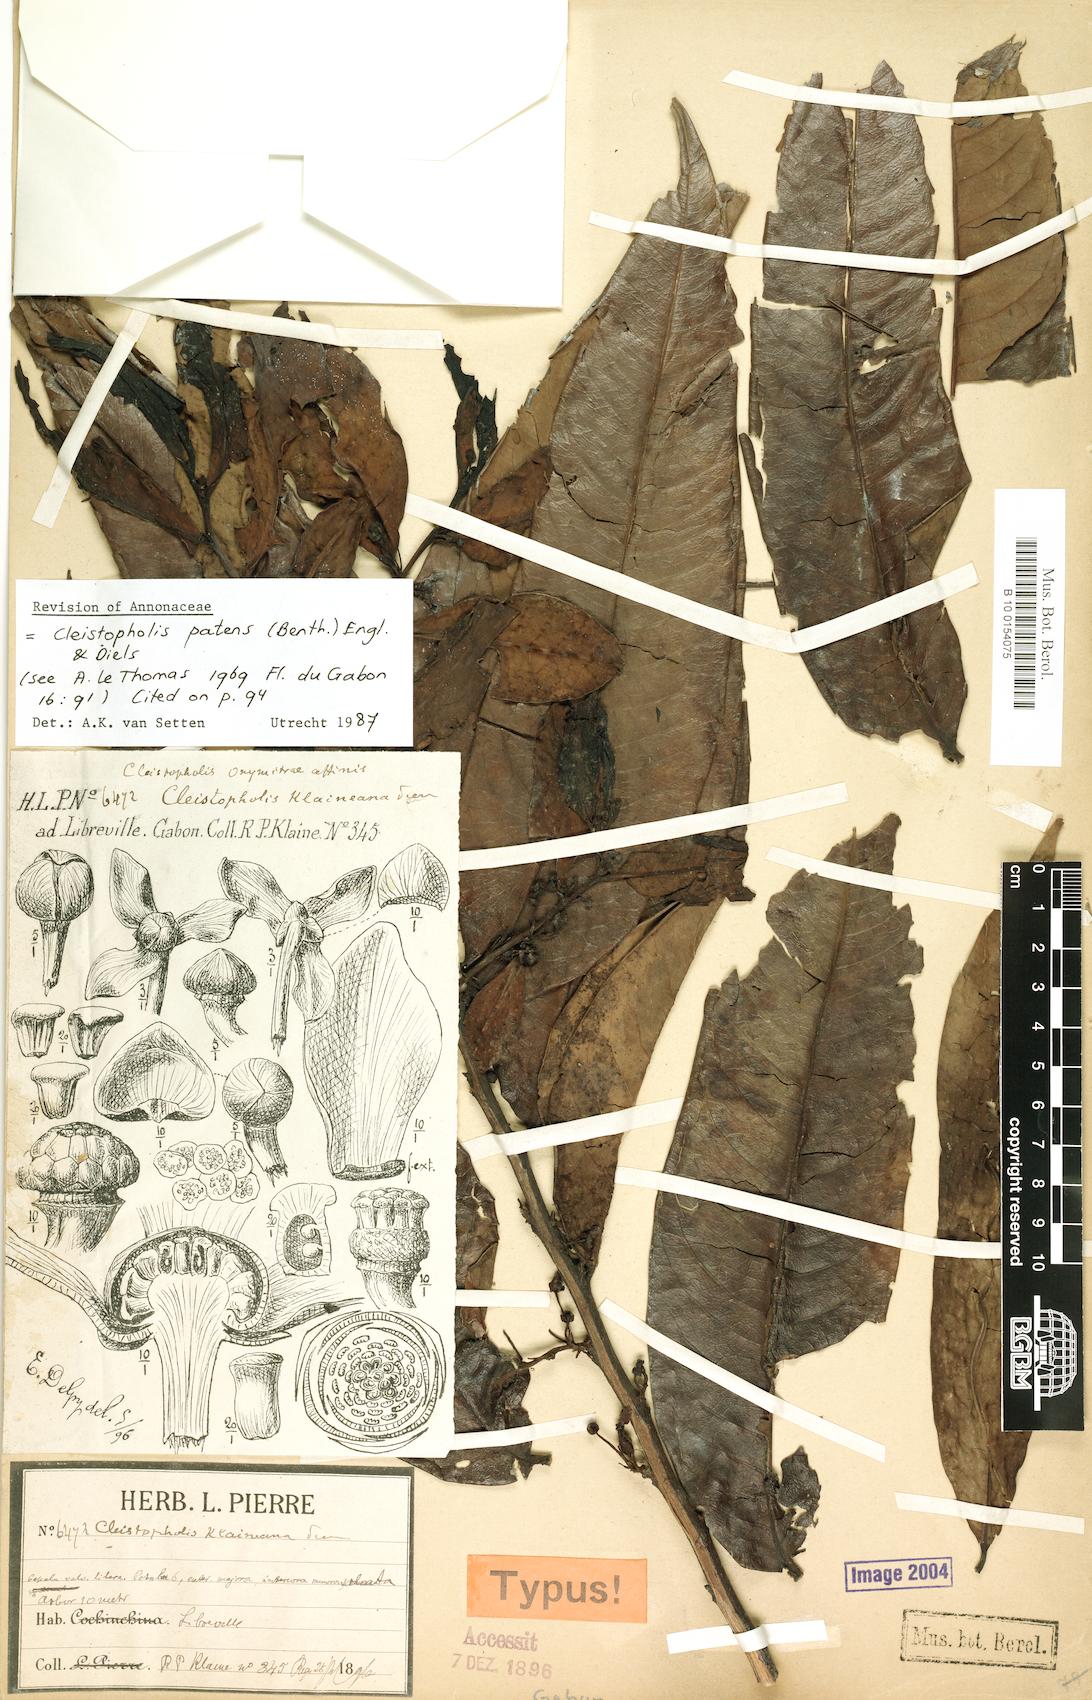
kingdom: Plantae
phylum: Tracheophyta
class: Magnoliopsida
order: Magnoliales
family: Annonaceae
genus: Cleistopholis
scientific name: Cleistopholis patens
